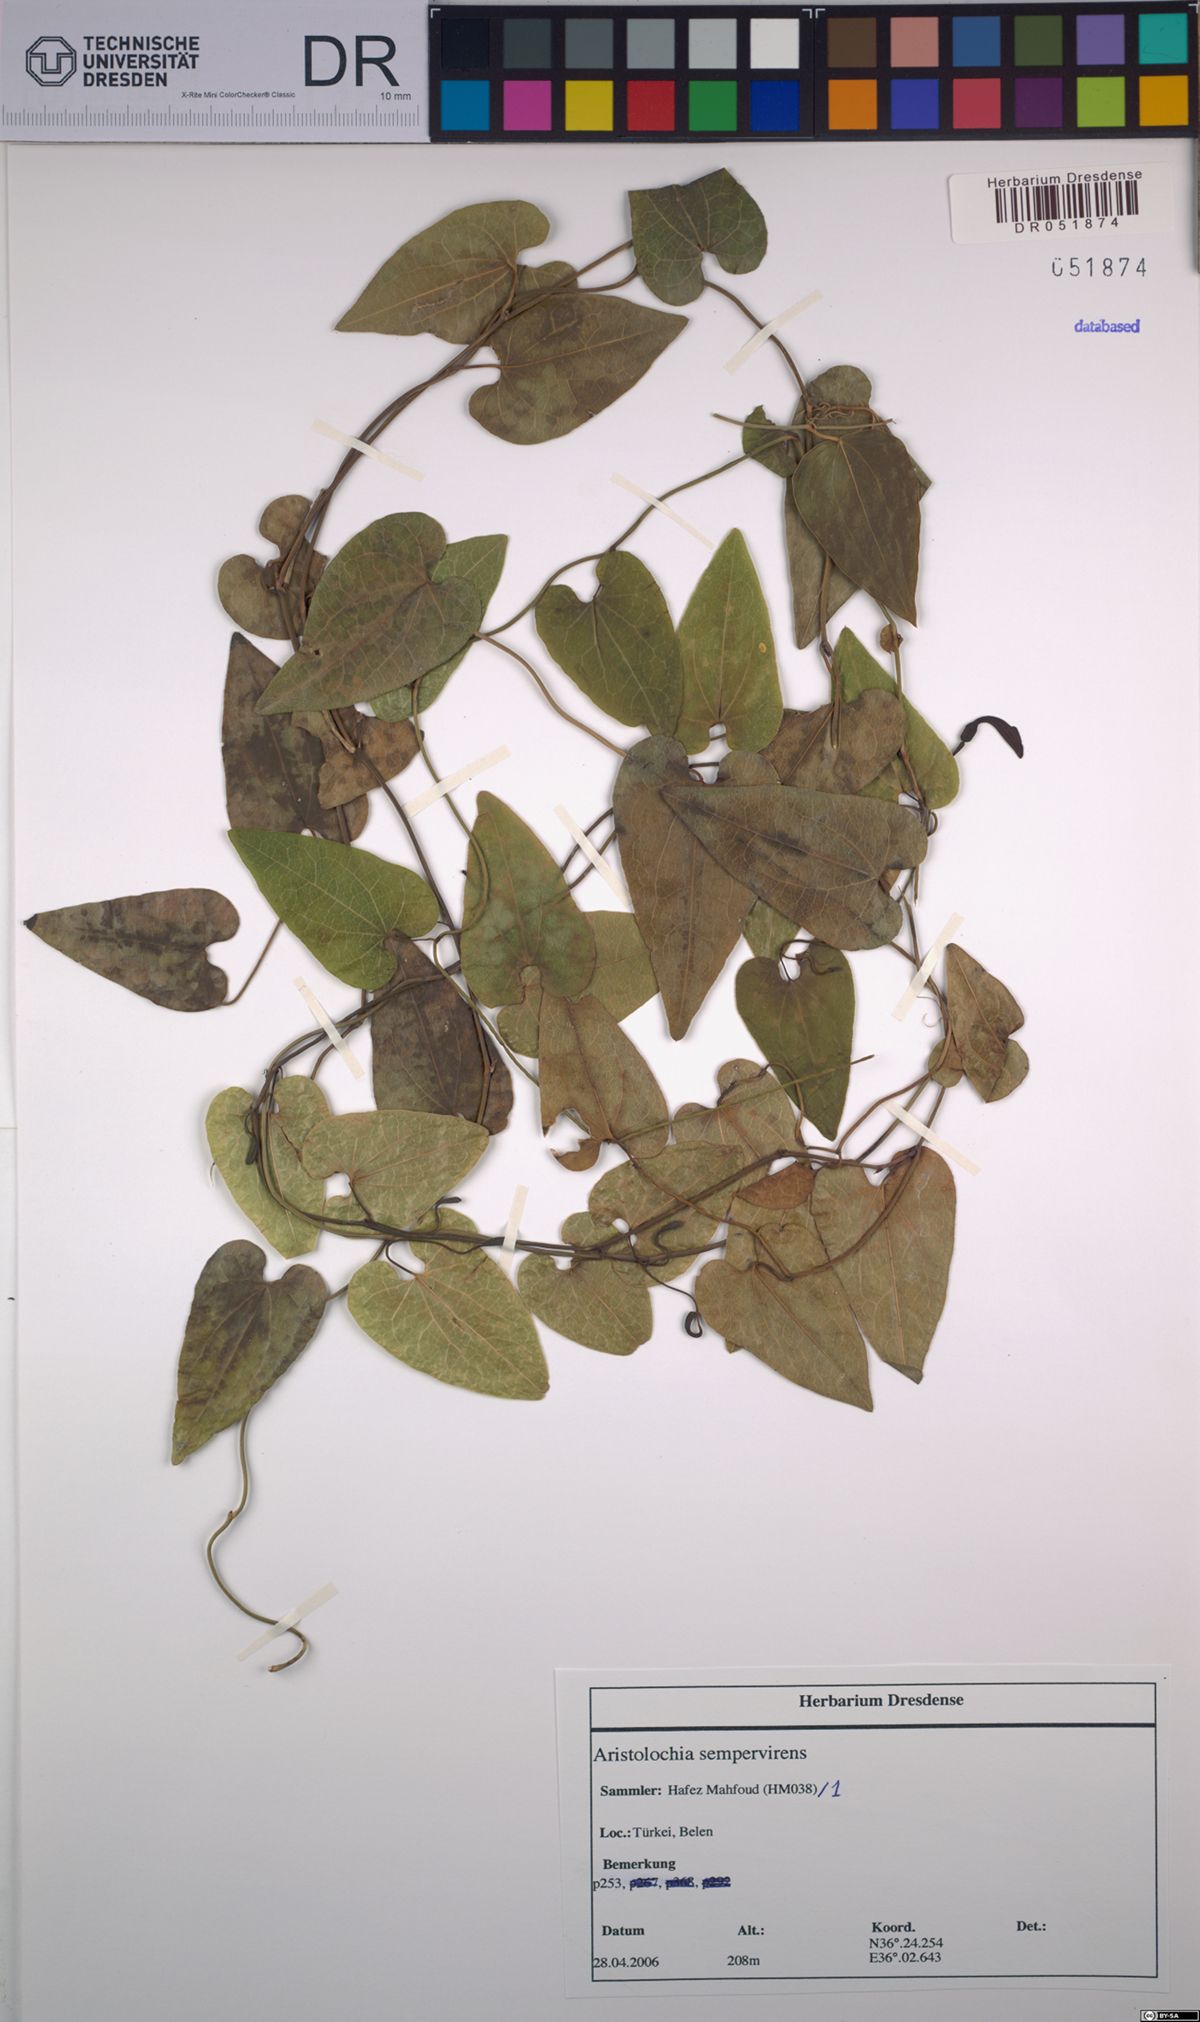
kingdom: Plantae
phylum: Tracheophyta
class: Magnoliopsida
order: Piperales
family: Aristolochiaceae
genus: Aristolochia
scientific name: Aristolochia sempervirens
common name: Long birthwort
